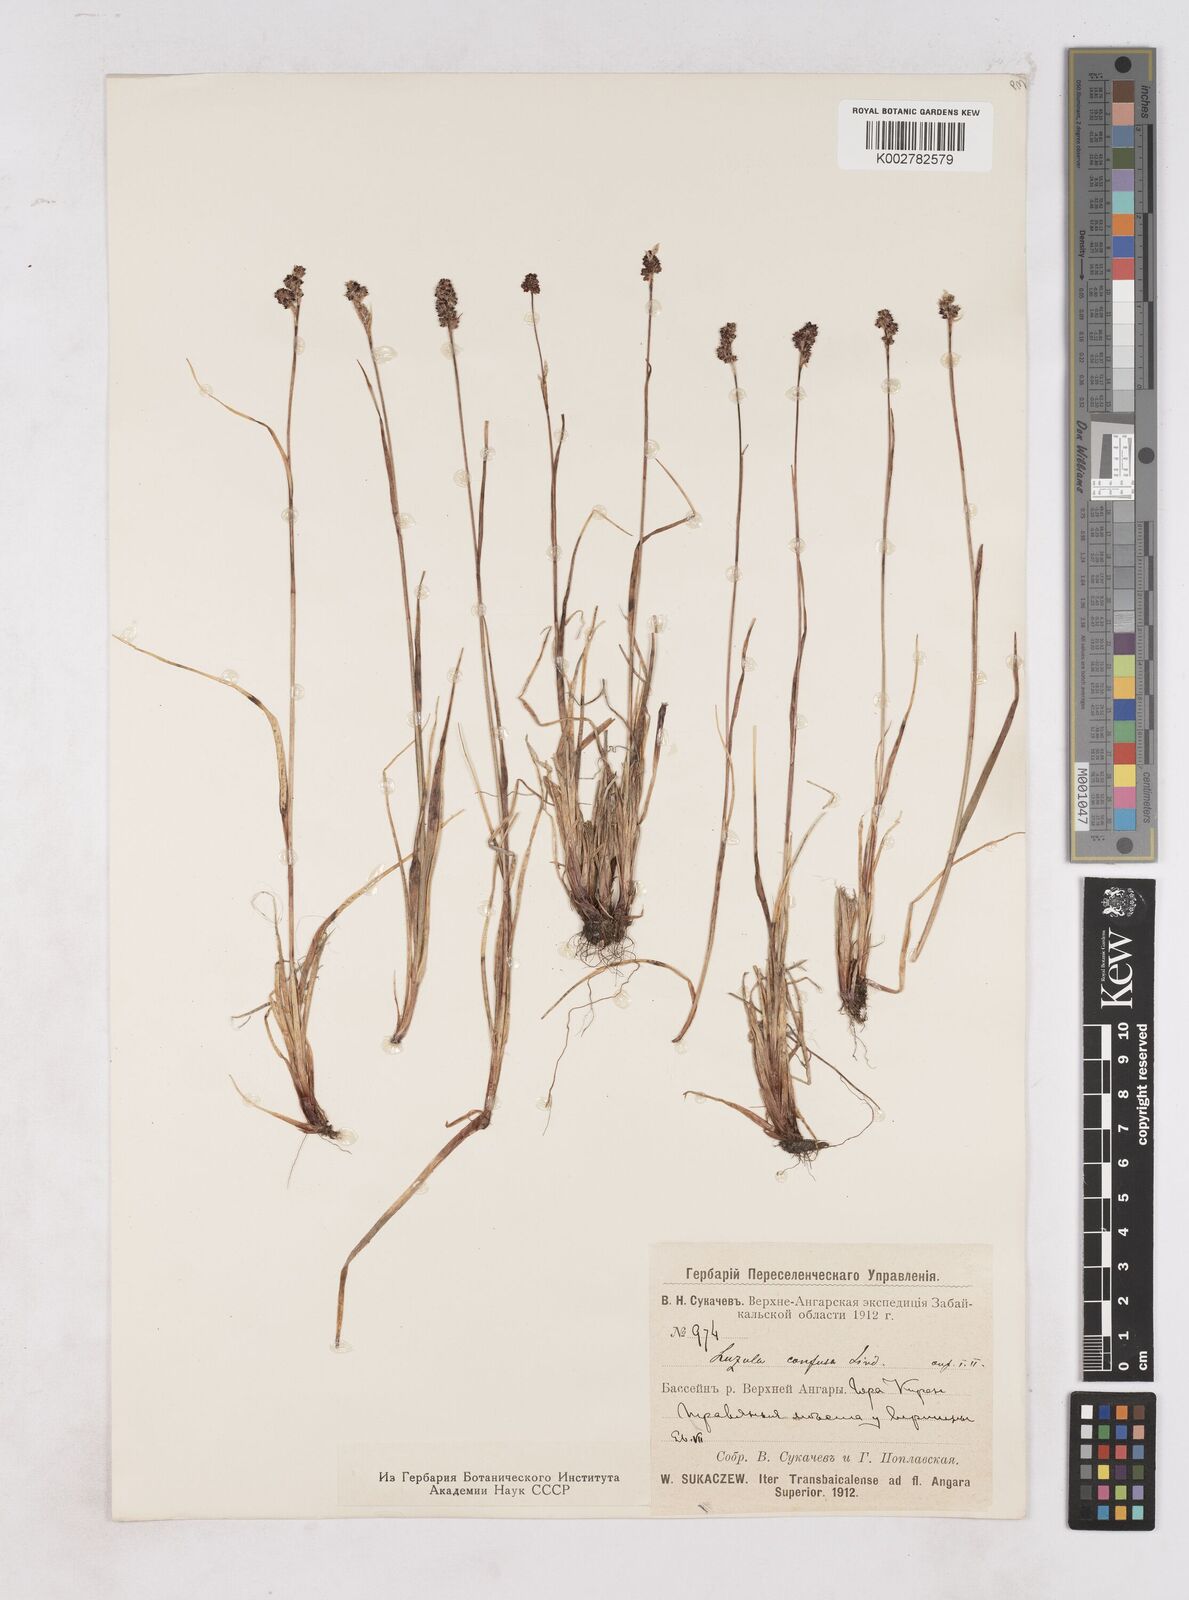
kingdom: Plantae
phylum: Tracheophyta
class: Liliopsida
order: Poales
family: Juncaceae
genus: Luzula
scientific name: Luzula confusa
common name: Northern wood rush
